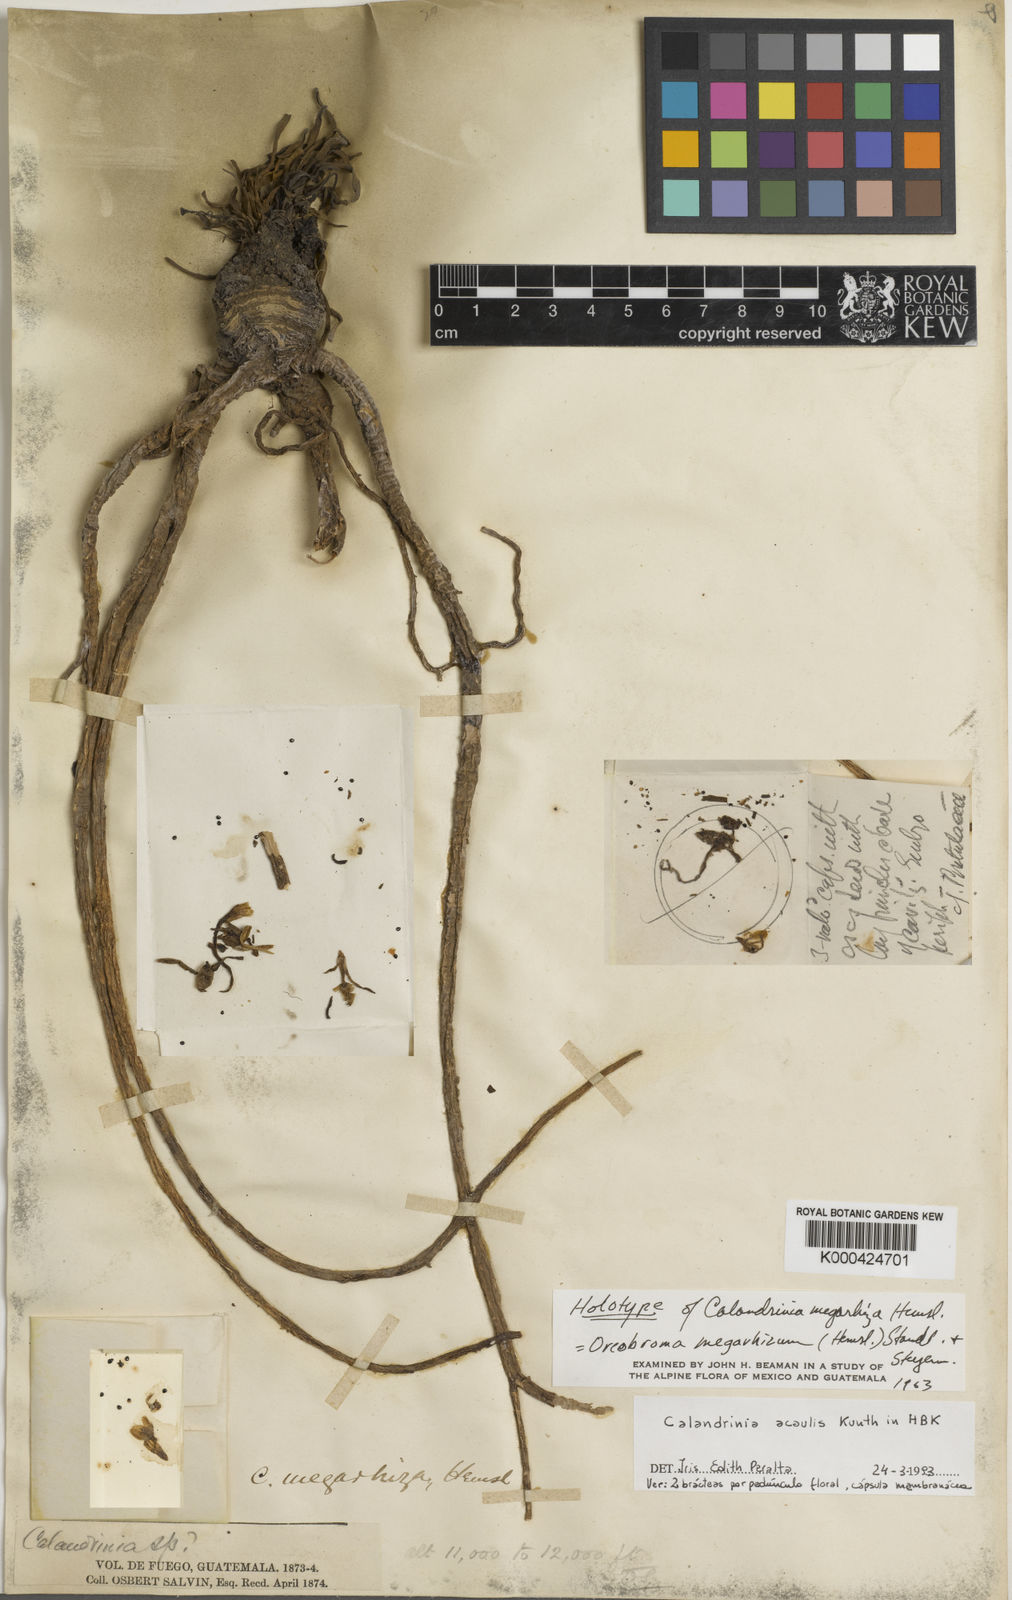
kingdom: Plantae
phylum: Tracheophyta
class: Magnoliopsida
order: Caryophyllales
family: Montiaceae
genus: Calandrinia
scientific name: Calandrinia acaulis
